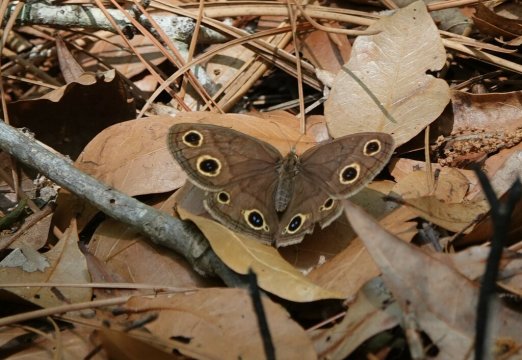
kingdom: Animalia
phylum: Arthropoda
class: Insecta
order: Lepidoptera
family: Nymphalidae
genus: Euptychia
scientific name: Euptychia cymela
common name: Little Wood Satyr
